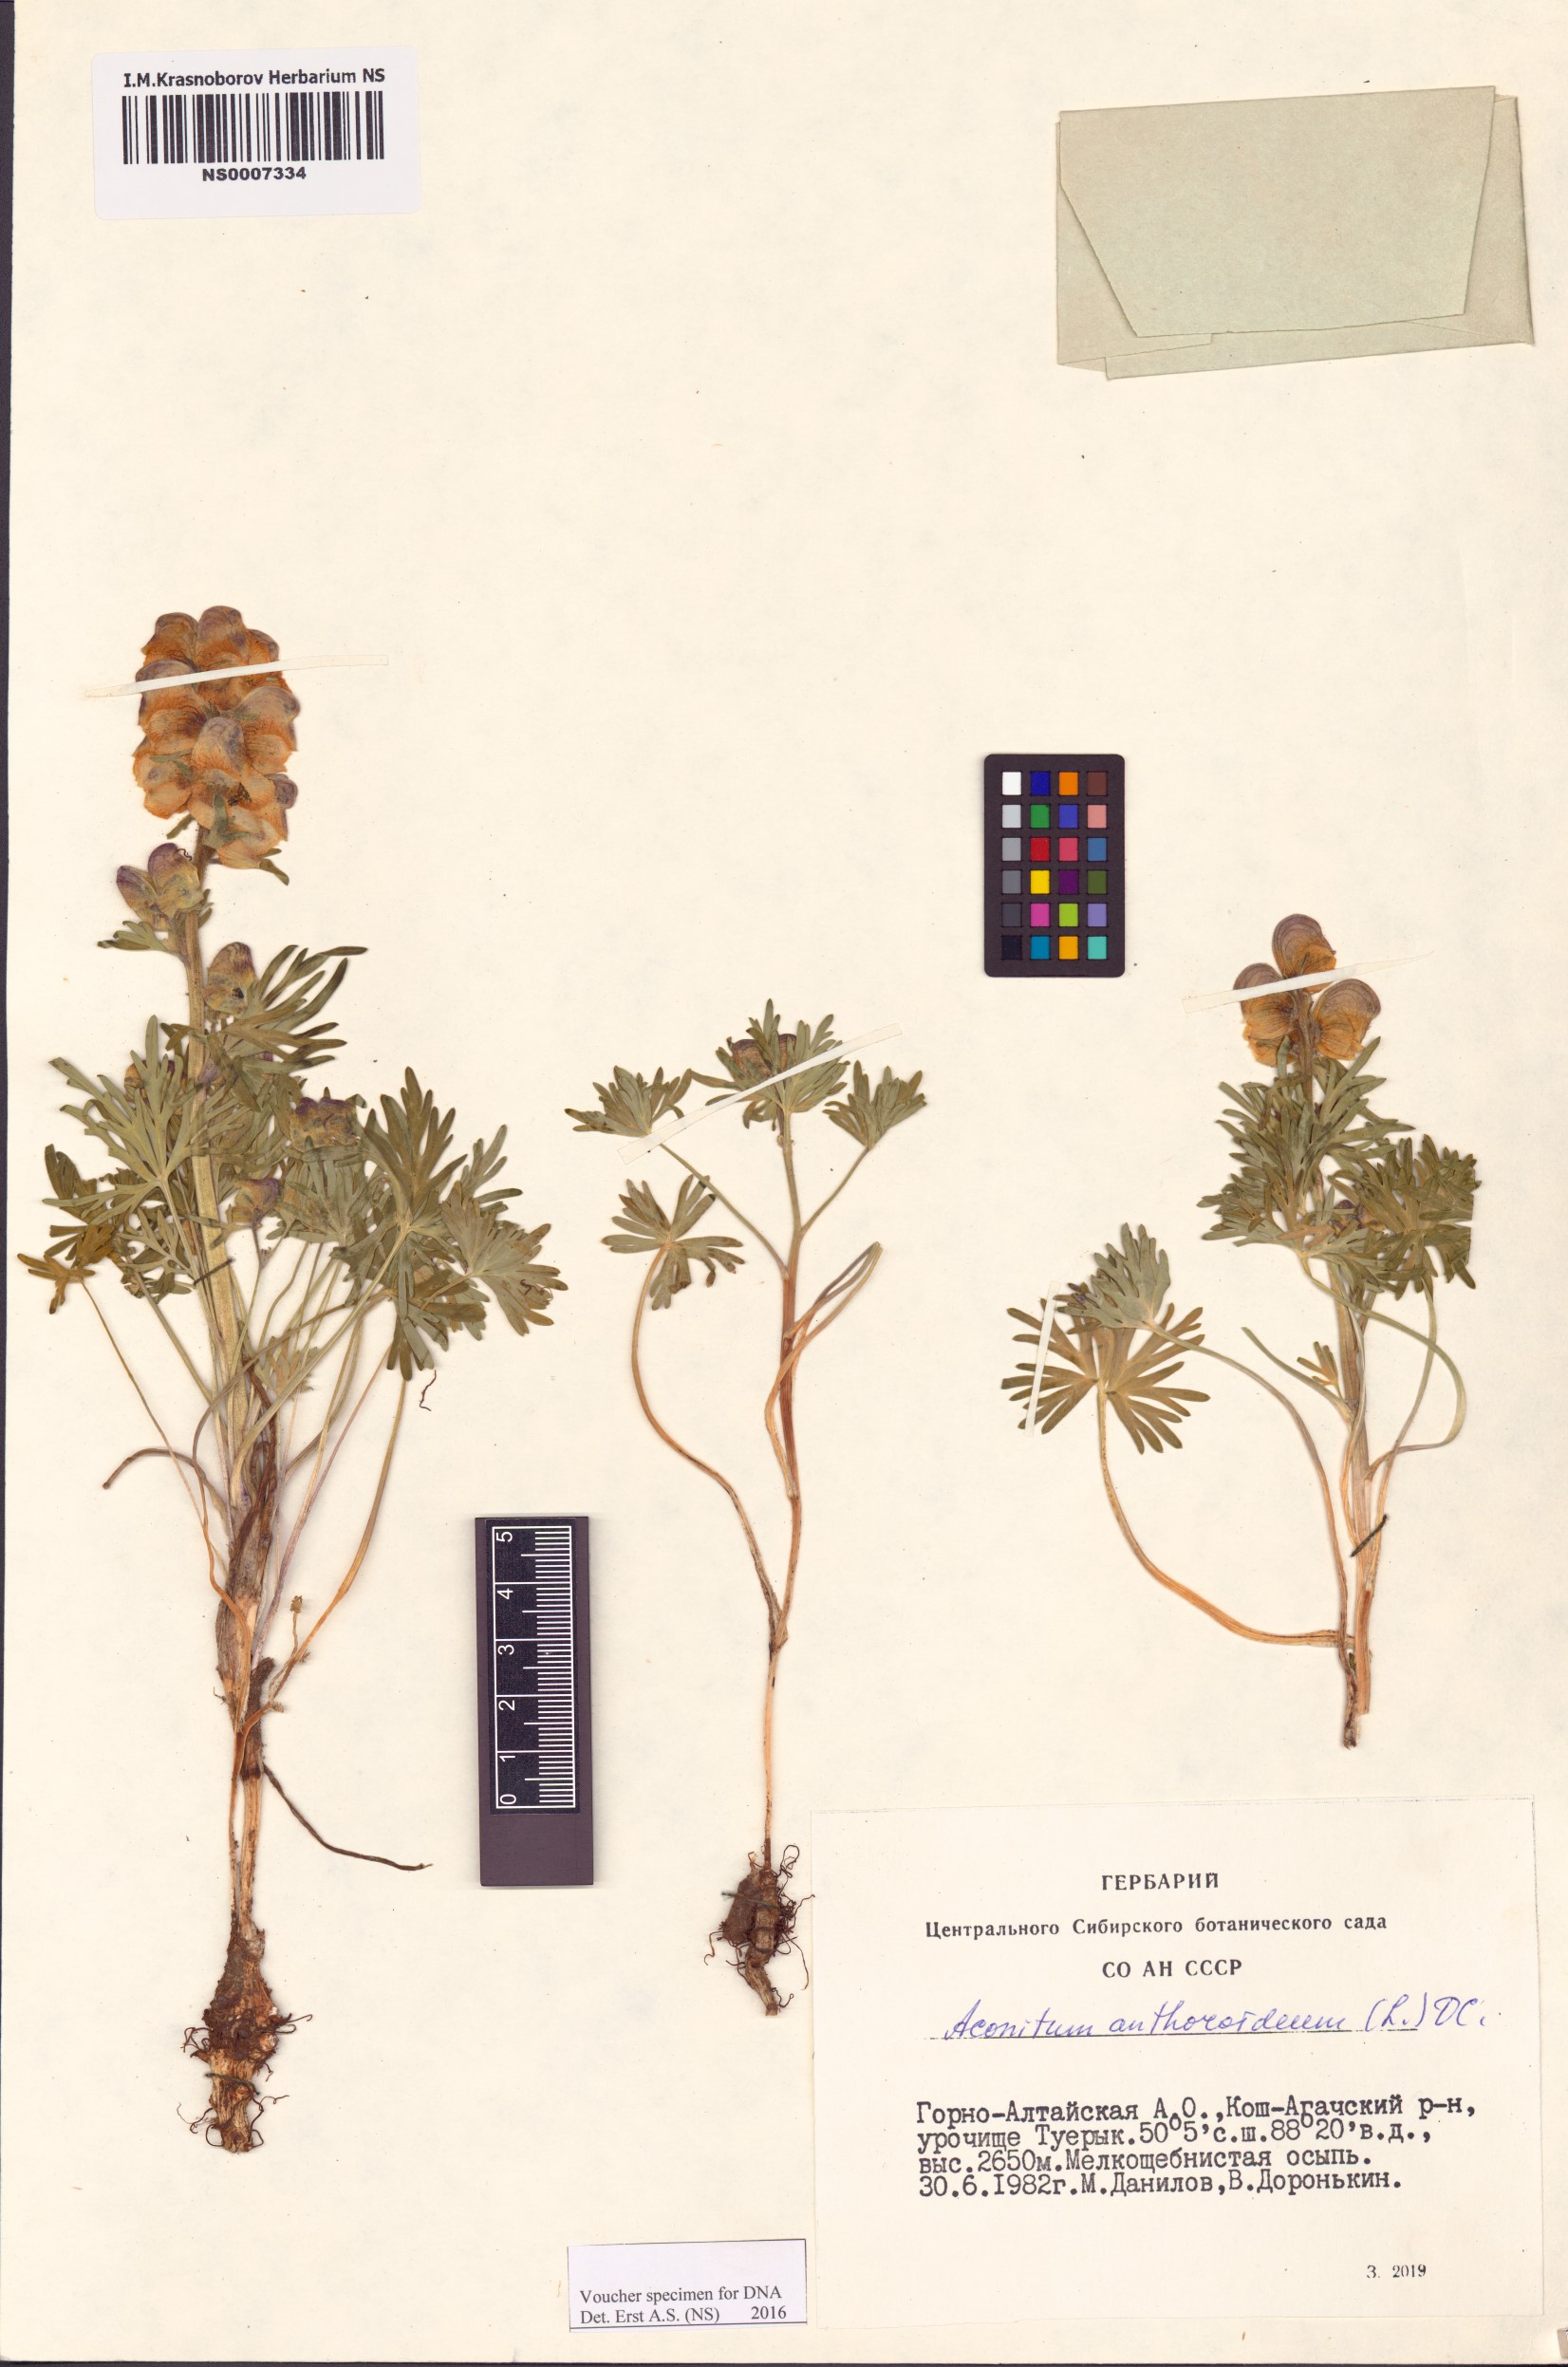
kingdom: Plantae
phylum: Tracheophyta
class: Magnoliopsida
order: Ranunculales
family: Ranunculaceae
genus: Aconitum
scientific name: Aconitum anthoroideum
